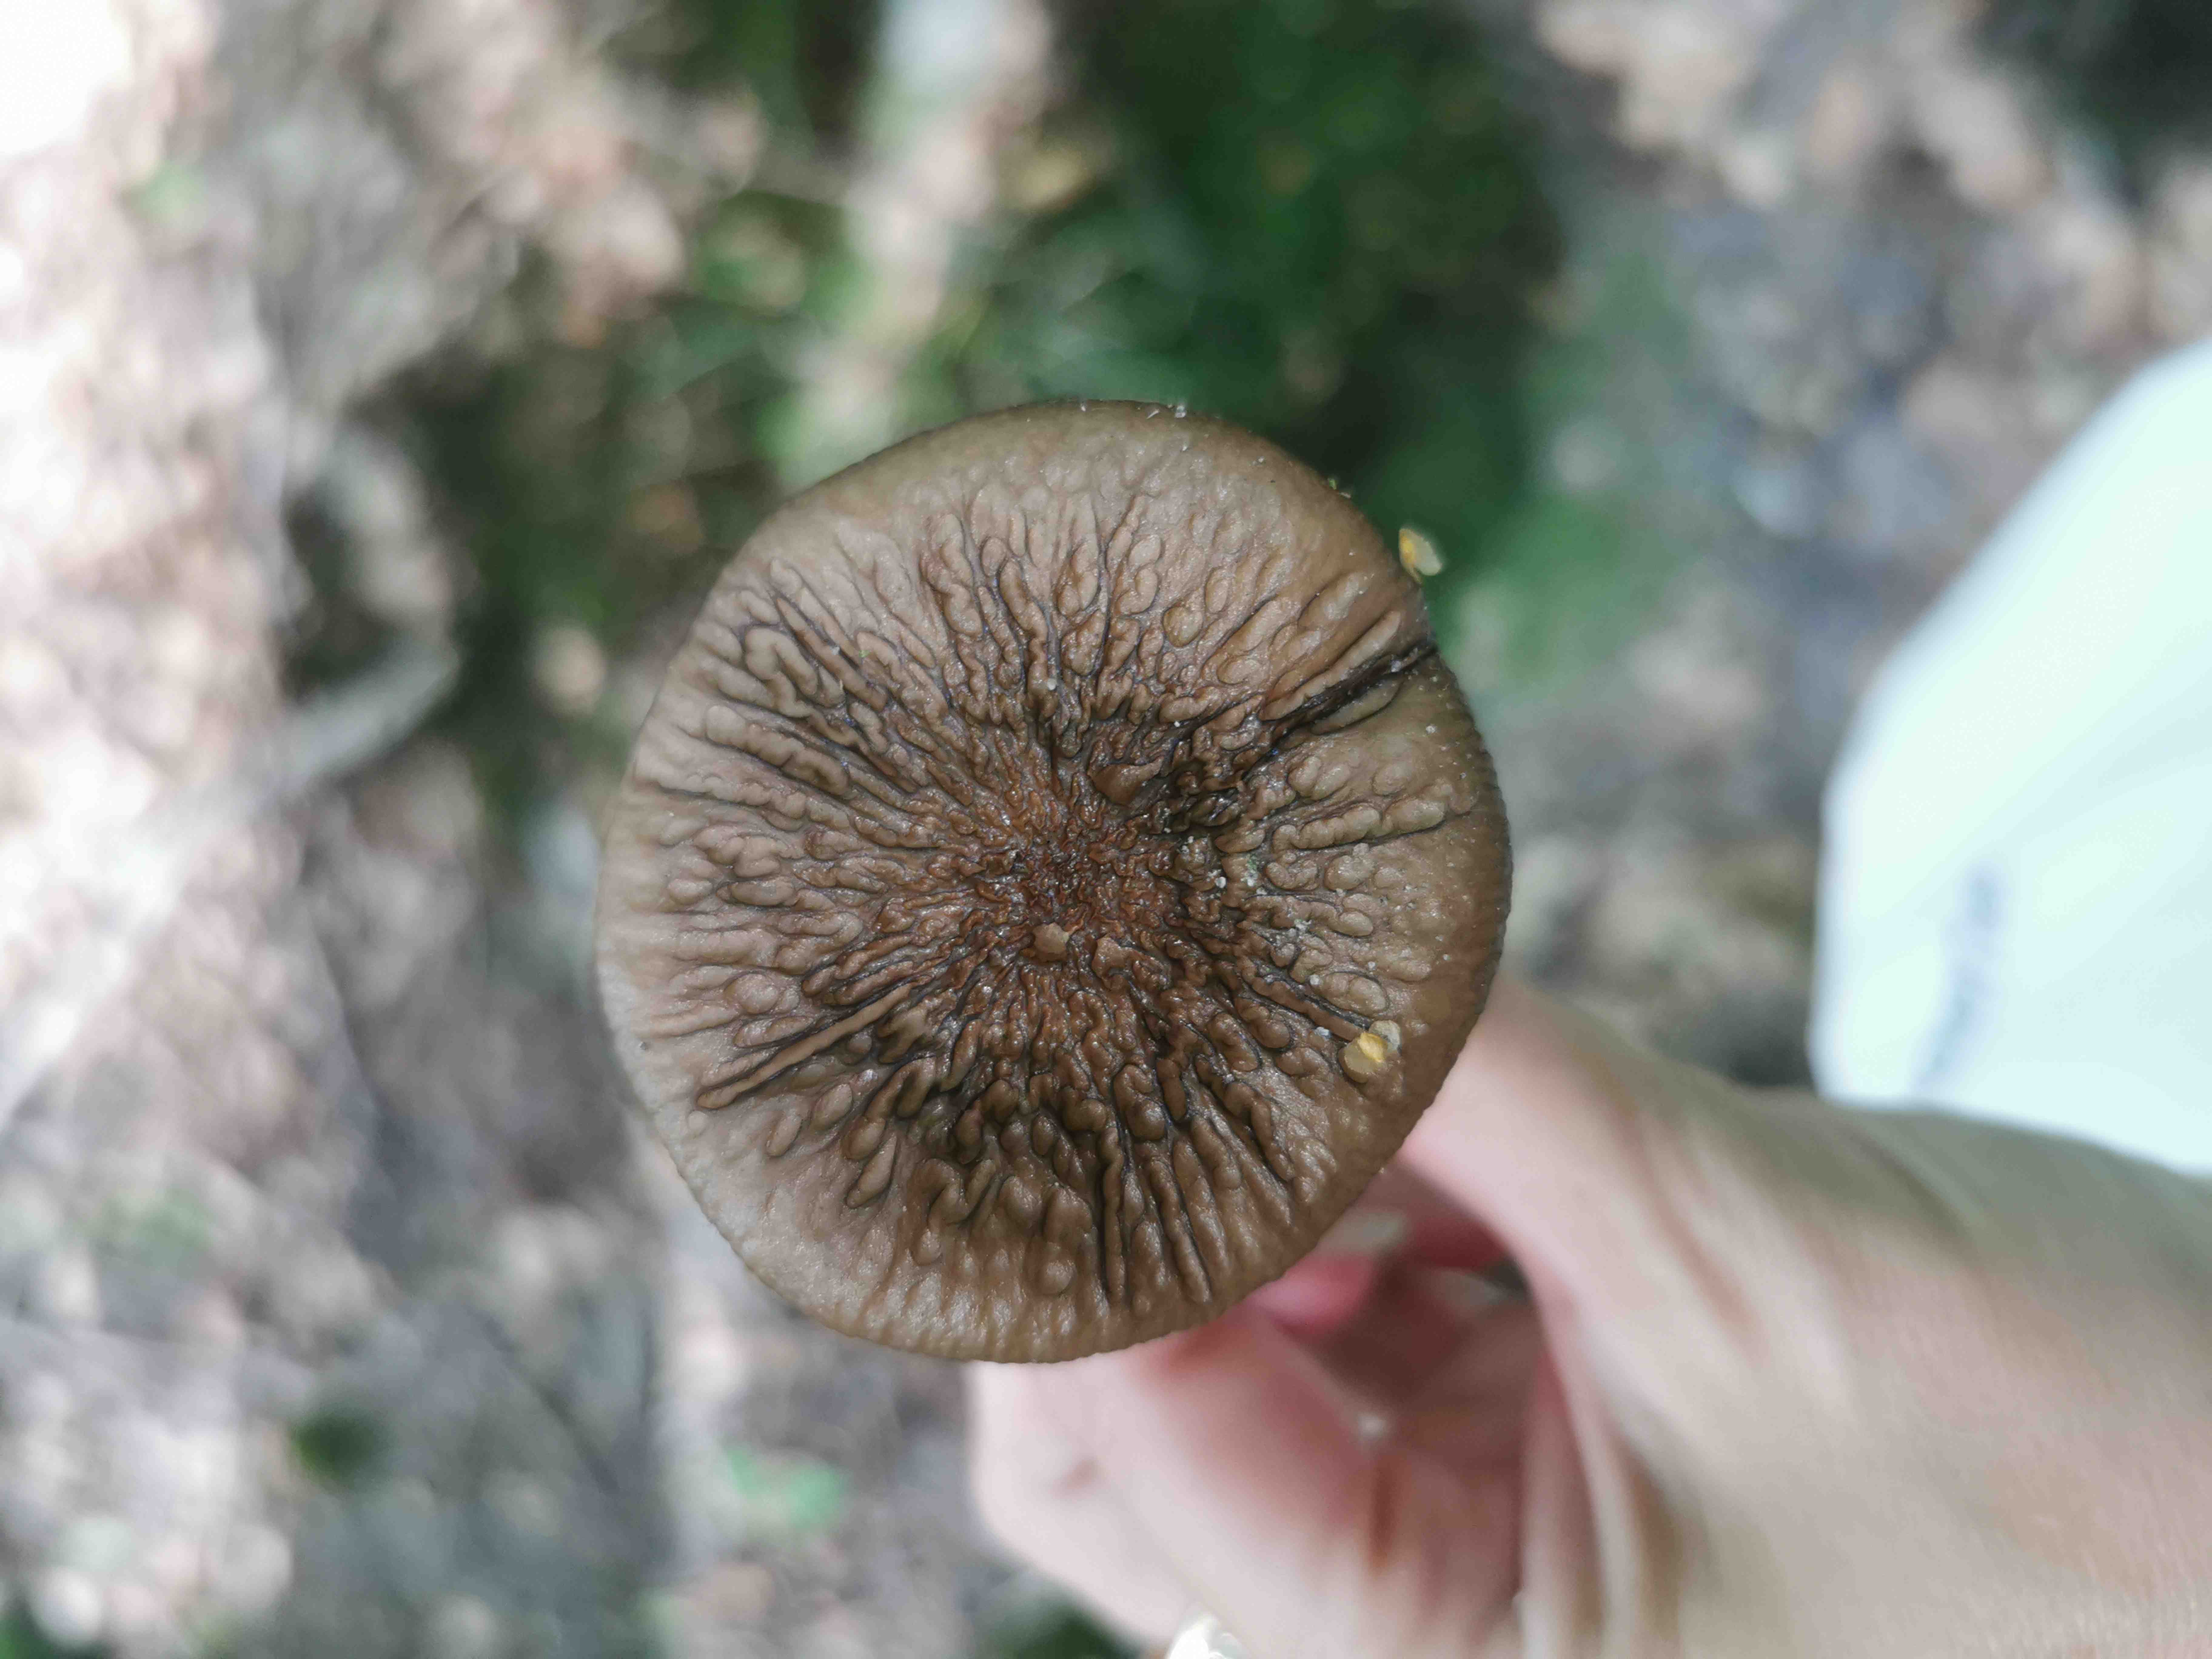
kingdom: Fungi
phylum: Basidiomycota
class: Agaricomycetes
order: Agaricales
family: Physalacriaceae
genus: Hymenopellis
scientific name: Hymenopellis radicata
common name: almindelig pælerodshat
